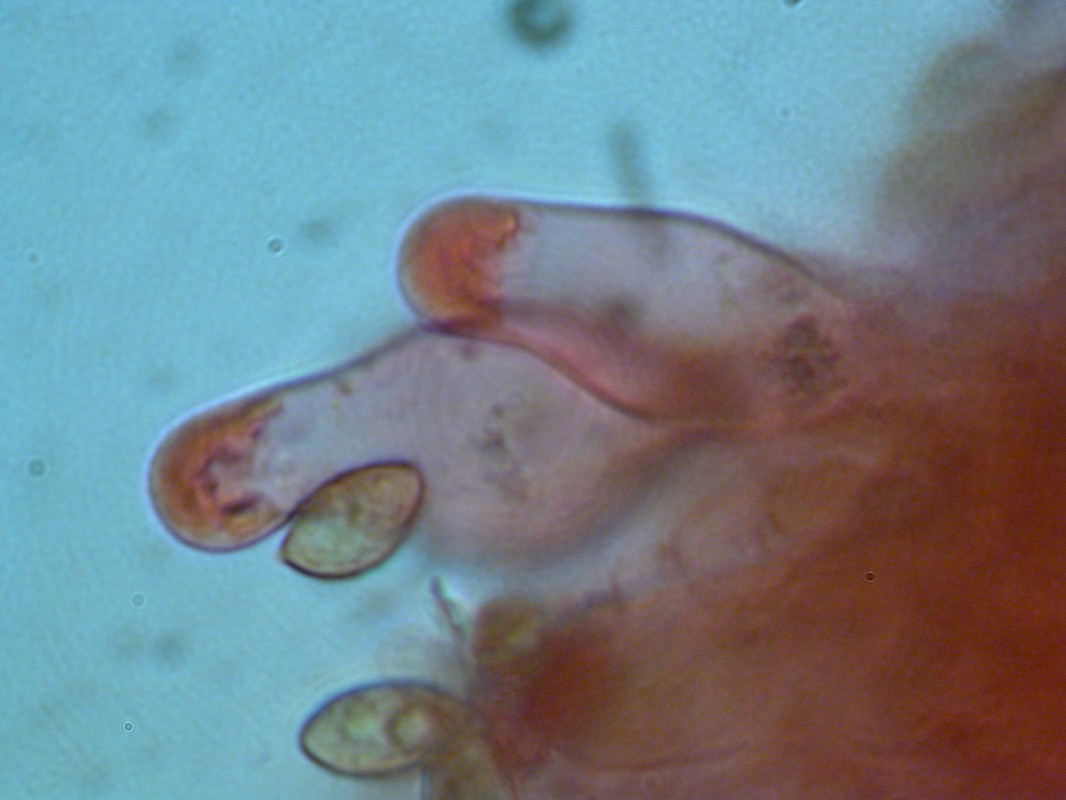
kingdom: Fungi
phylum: Basidiomycota
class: Agaricomycetes
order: Agaricales
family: Hymenogastraceae
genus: Galerina
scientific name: Galerina heimansii
